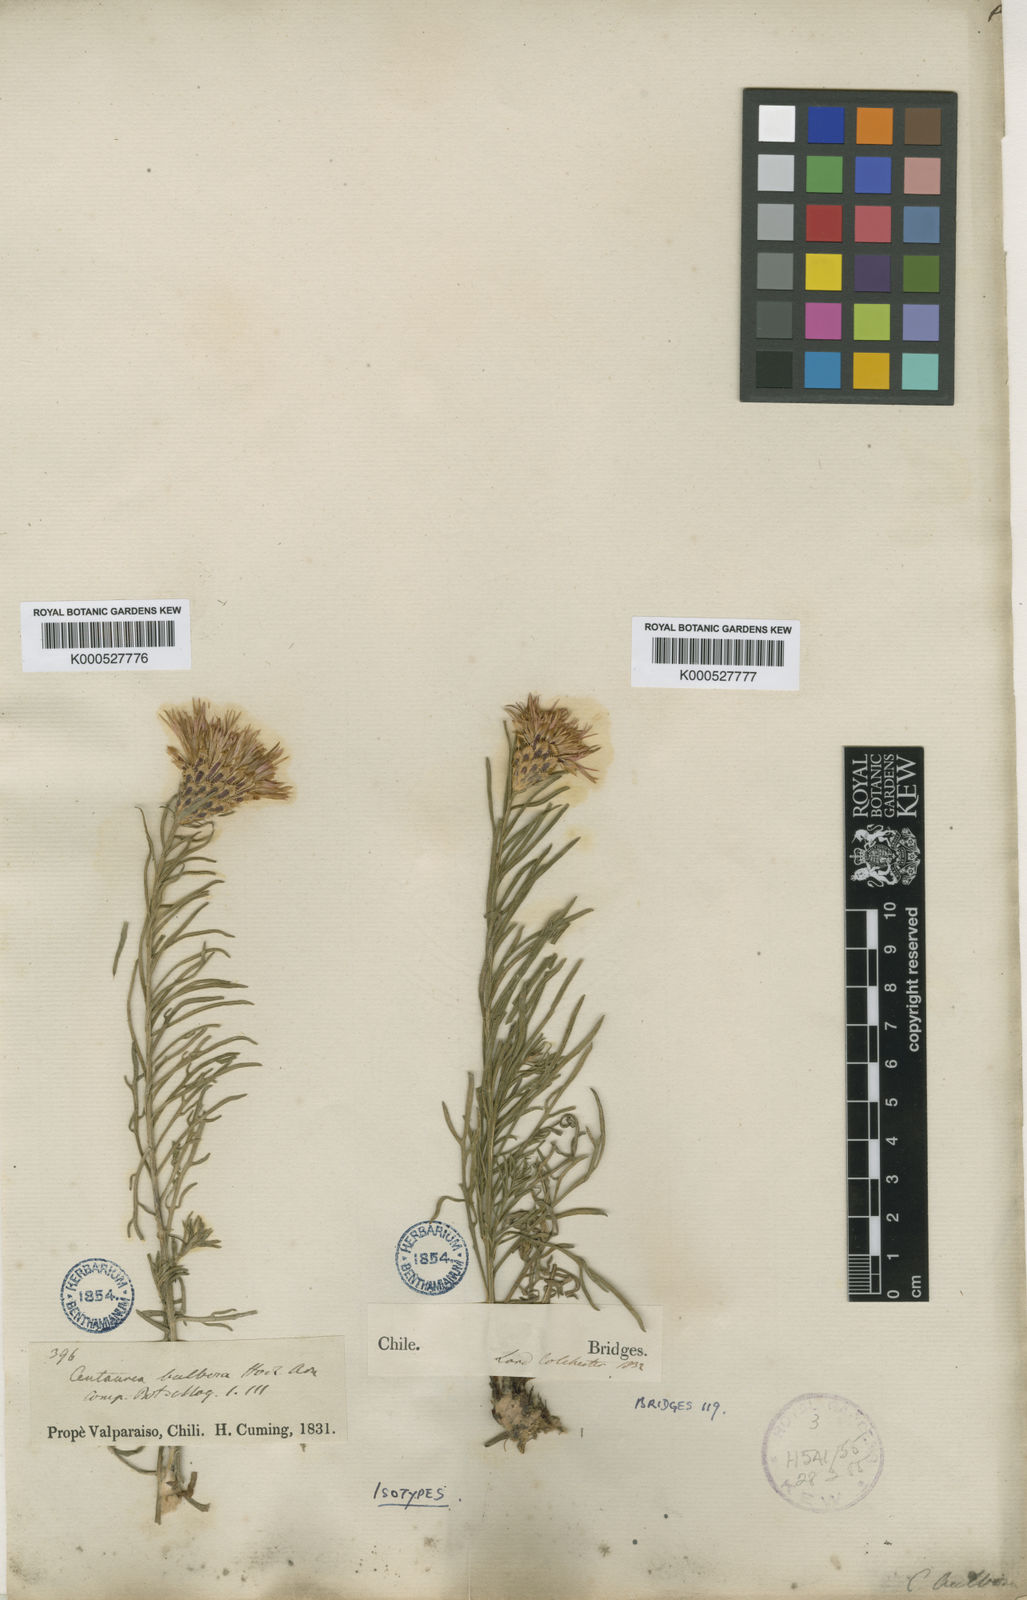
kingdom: Plantae
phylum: Tracheophyta
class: Magnoliopsida
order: Asterales
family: Asteraceae
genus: Plectocephalus
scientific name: Plectocephalus
